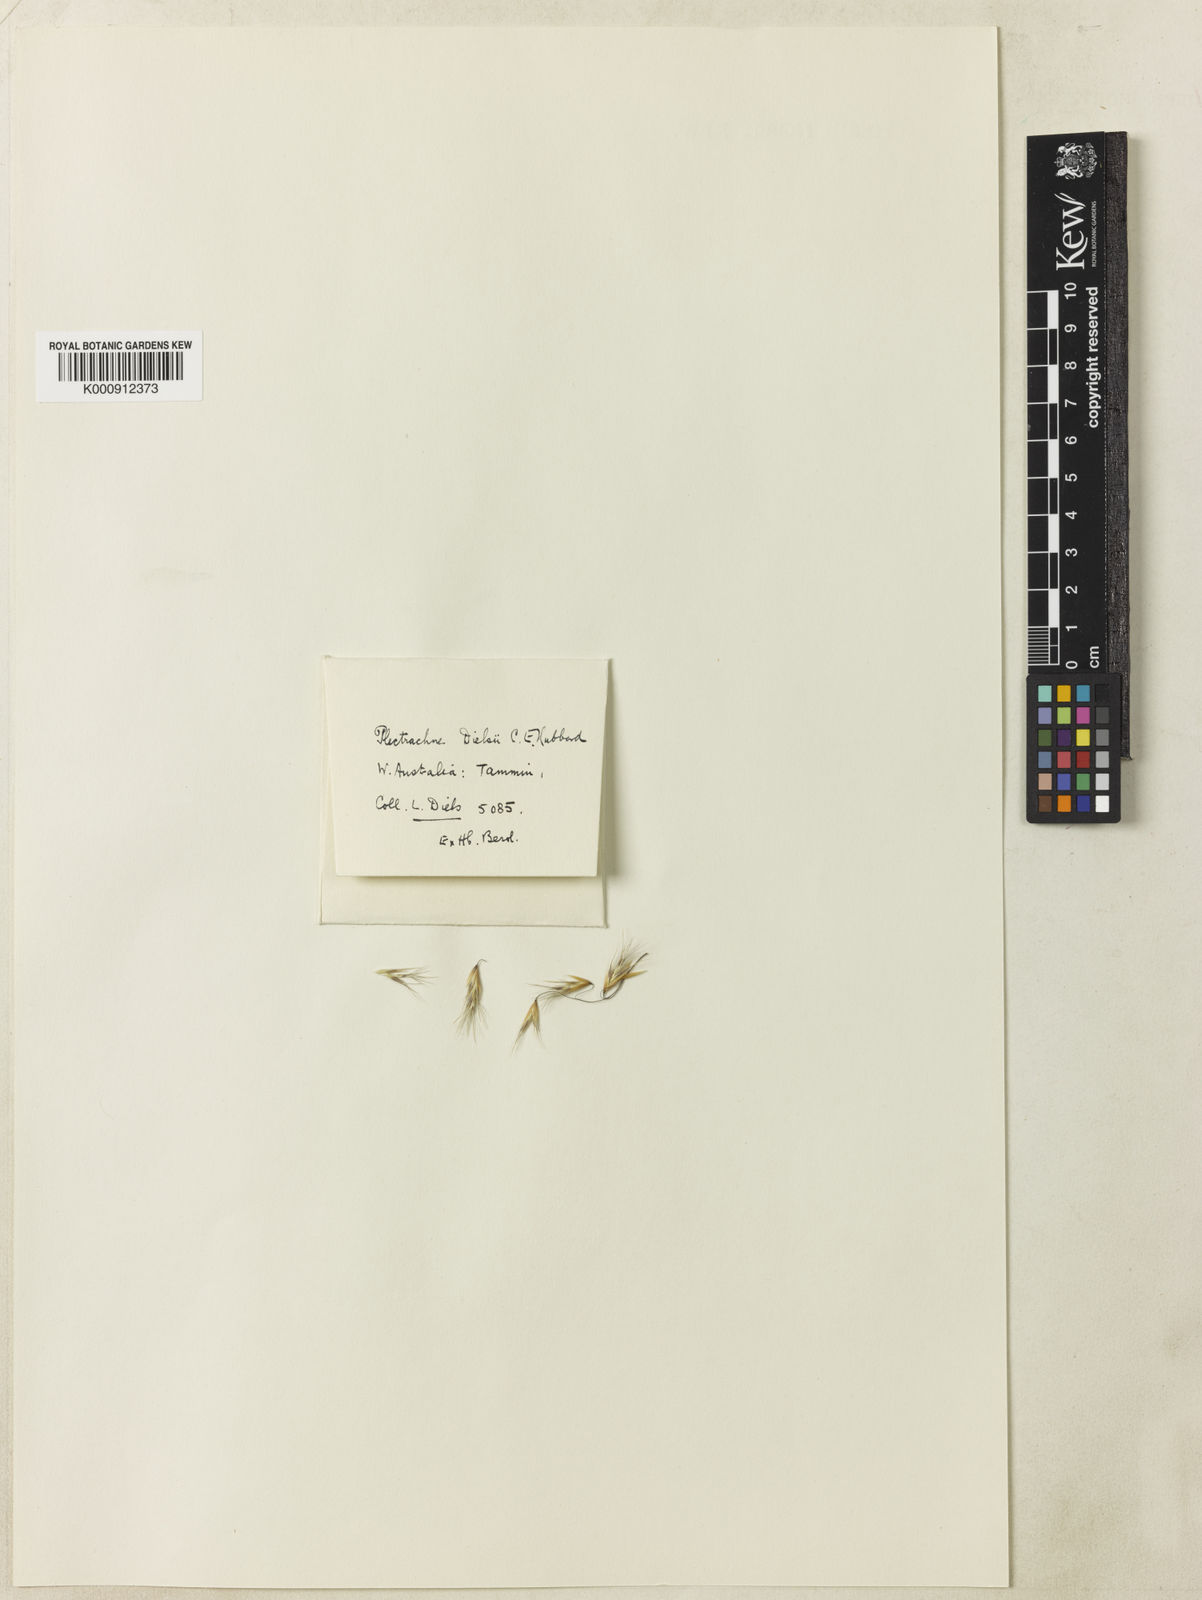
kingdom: Plantae
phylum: Tracheophyta
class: Liliopsida
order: Poales
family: Poaceae
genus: Triodia
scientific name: Triodia dielsii
